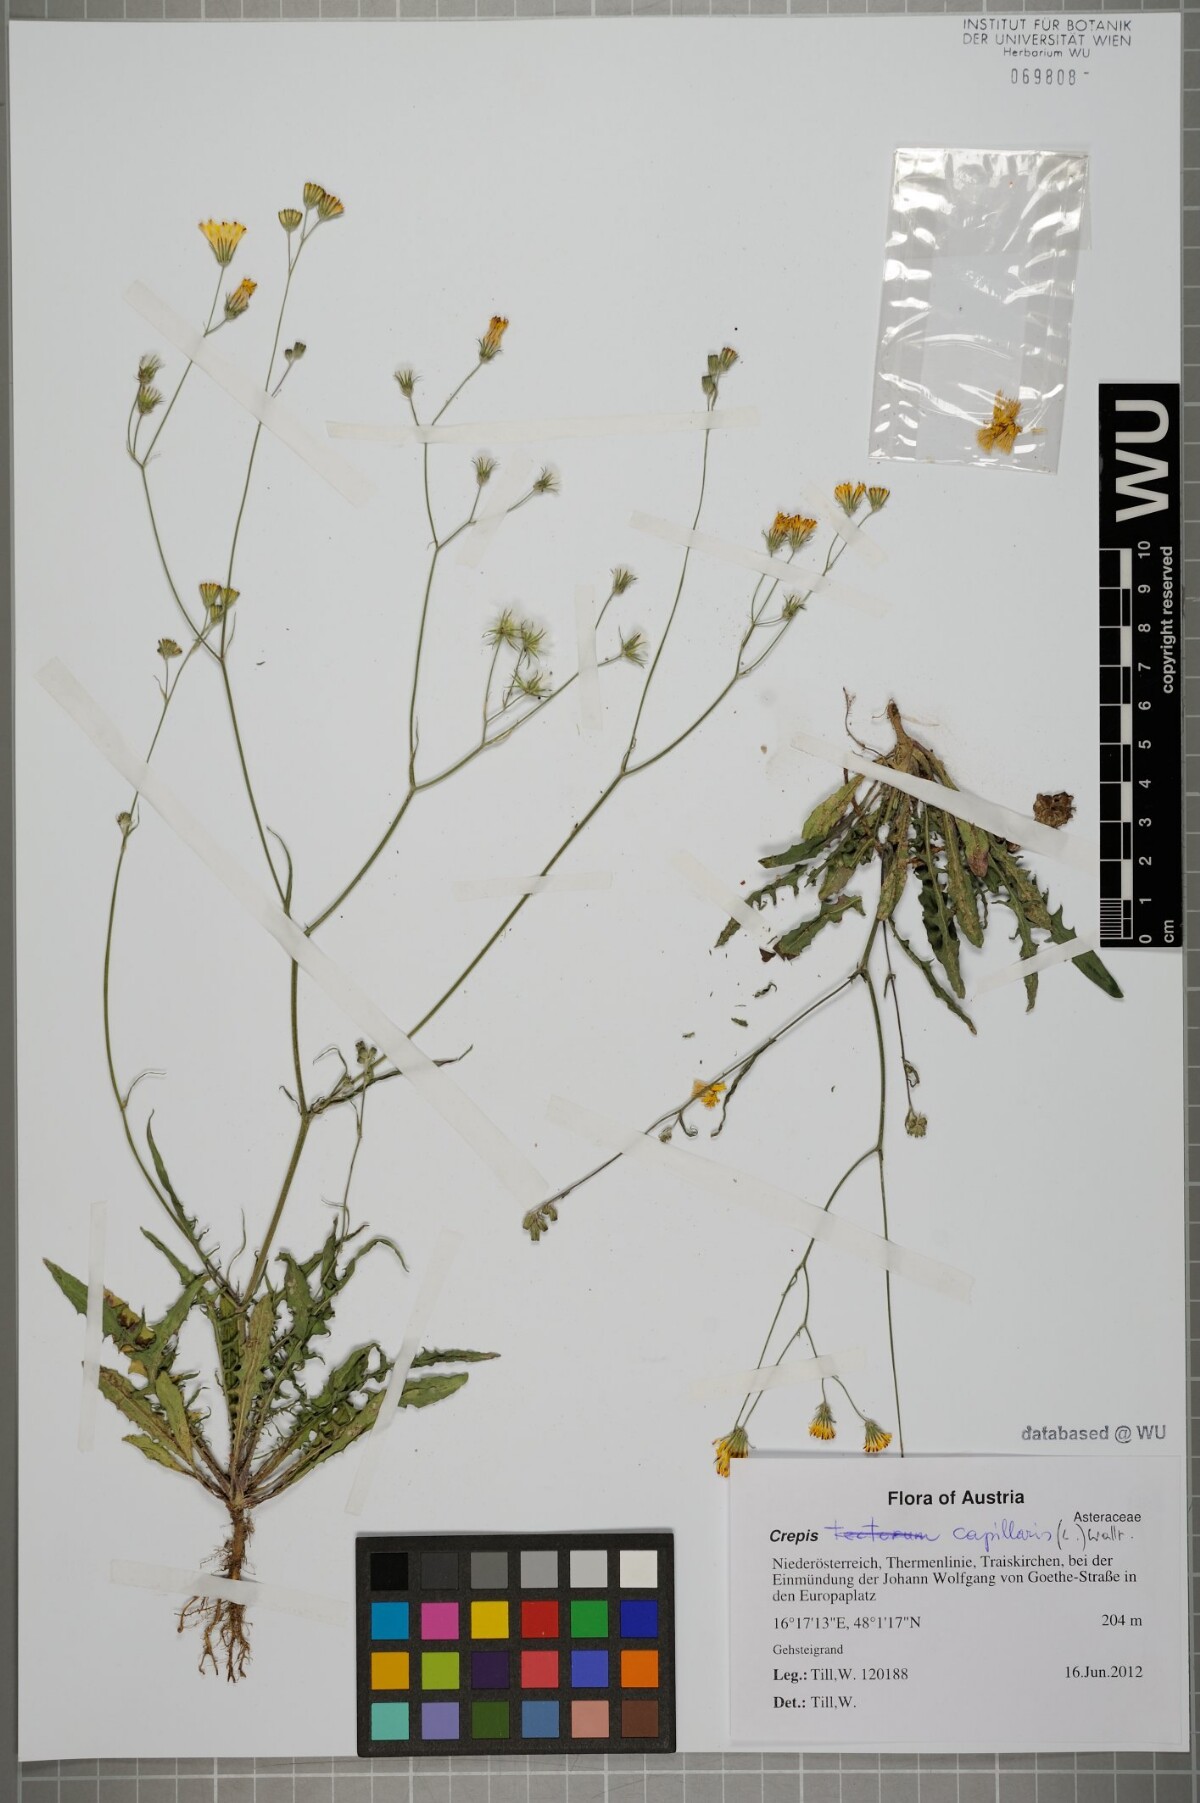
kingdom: Plantae
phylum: Tracheophyta
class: Magnoliopsida
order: Asterales
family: Asteraceae
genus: Crepis
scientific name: Crepis capillaris
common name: Smooth hawksbeard
